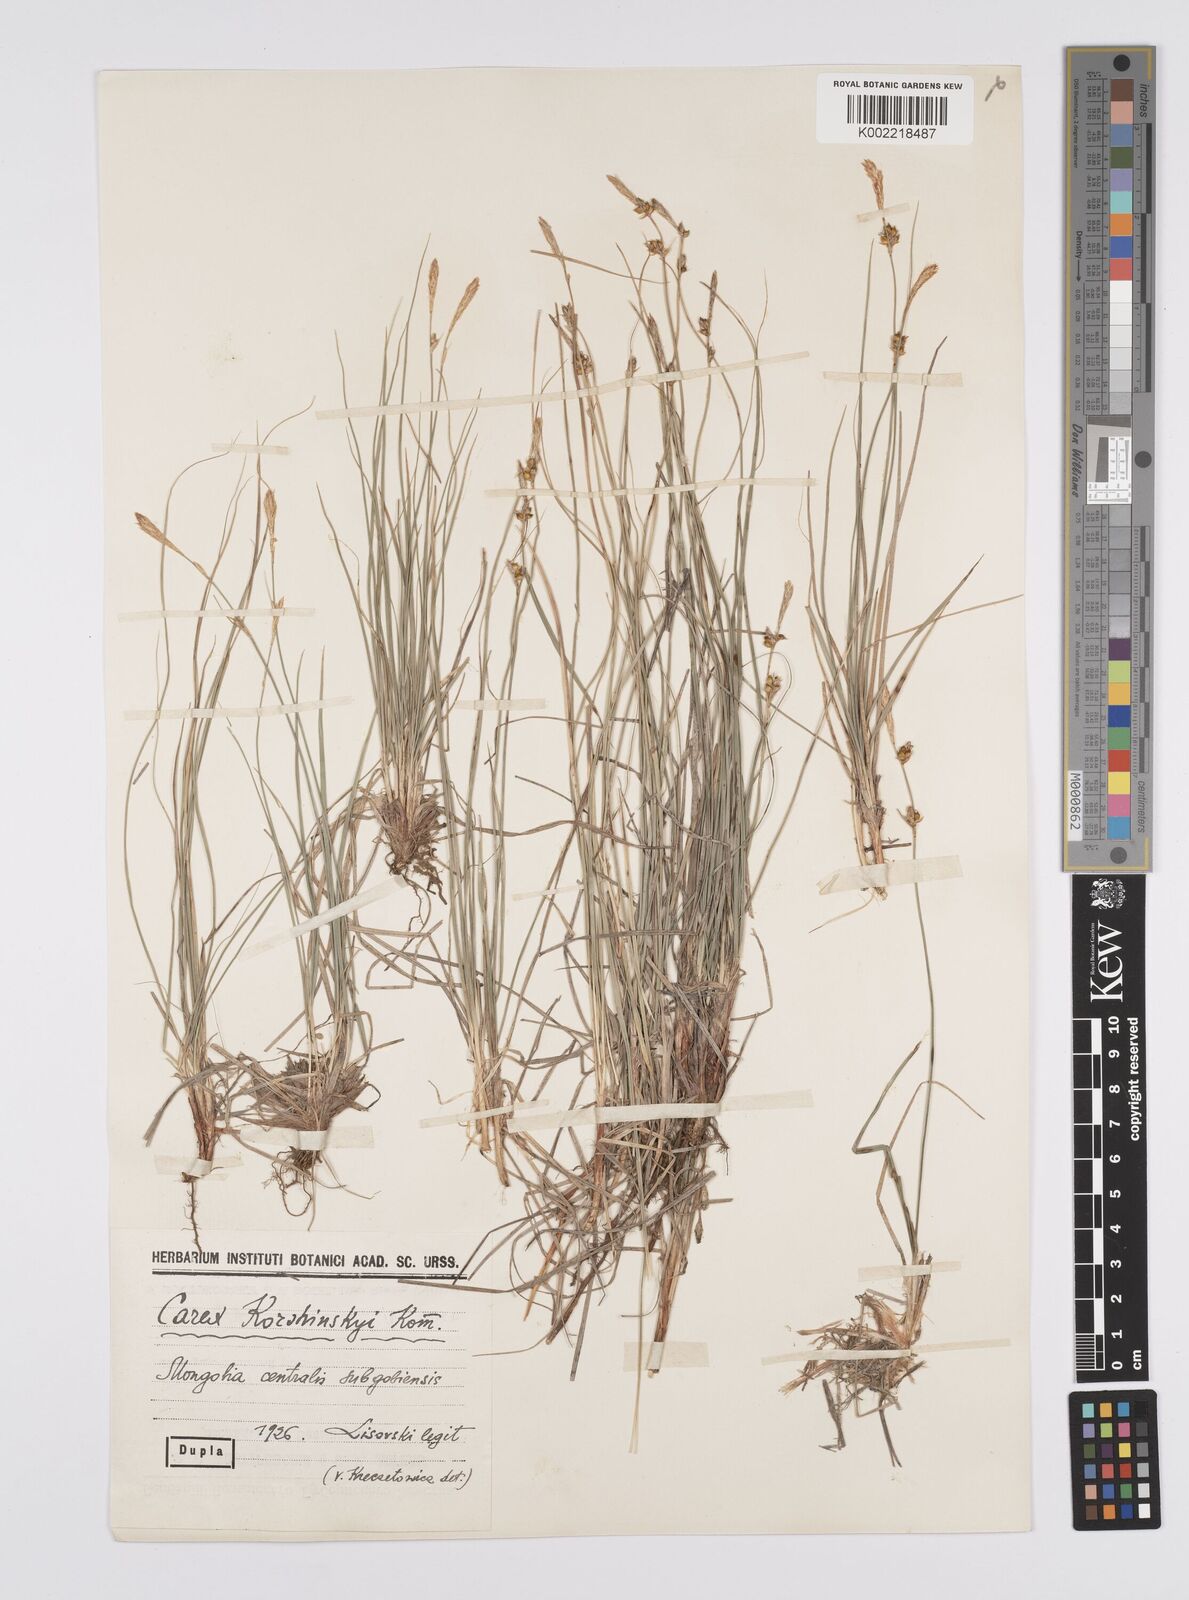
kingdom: Plantae
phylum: Tracheophyta
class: Liliopsida
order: Poales
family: Cyperaceae
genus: Carex
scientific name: Carex supina
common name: Lying-back sedge
